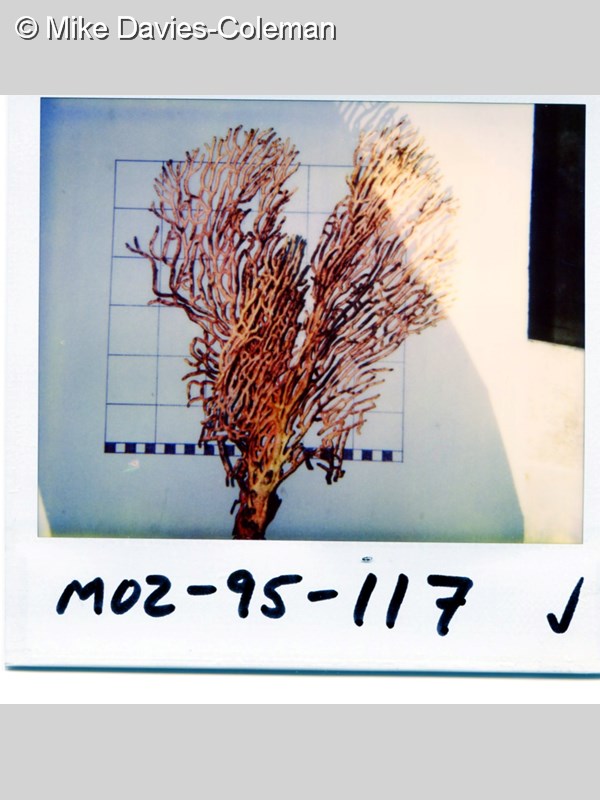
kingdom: Animalia
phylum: Cnidaria
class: Anthozoa
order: Malacalcyonacea
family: Eunicellidae
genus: Eunicella
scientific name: Eunicella albicans
